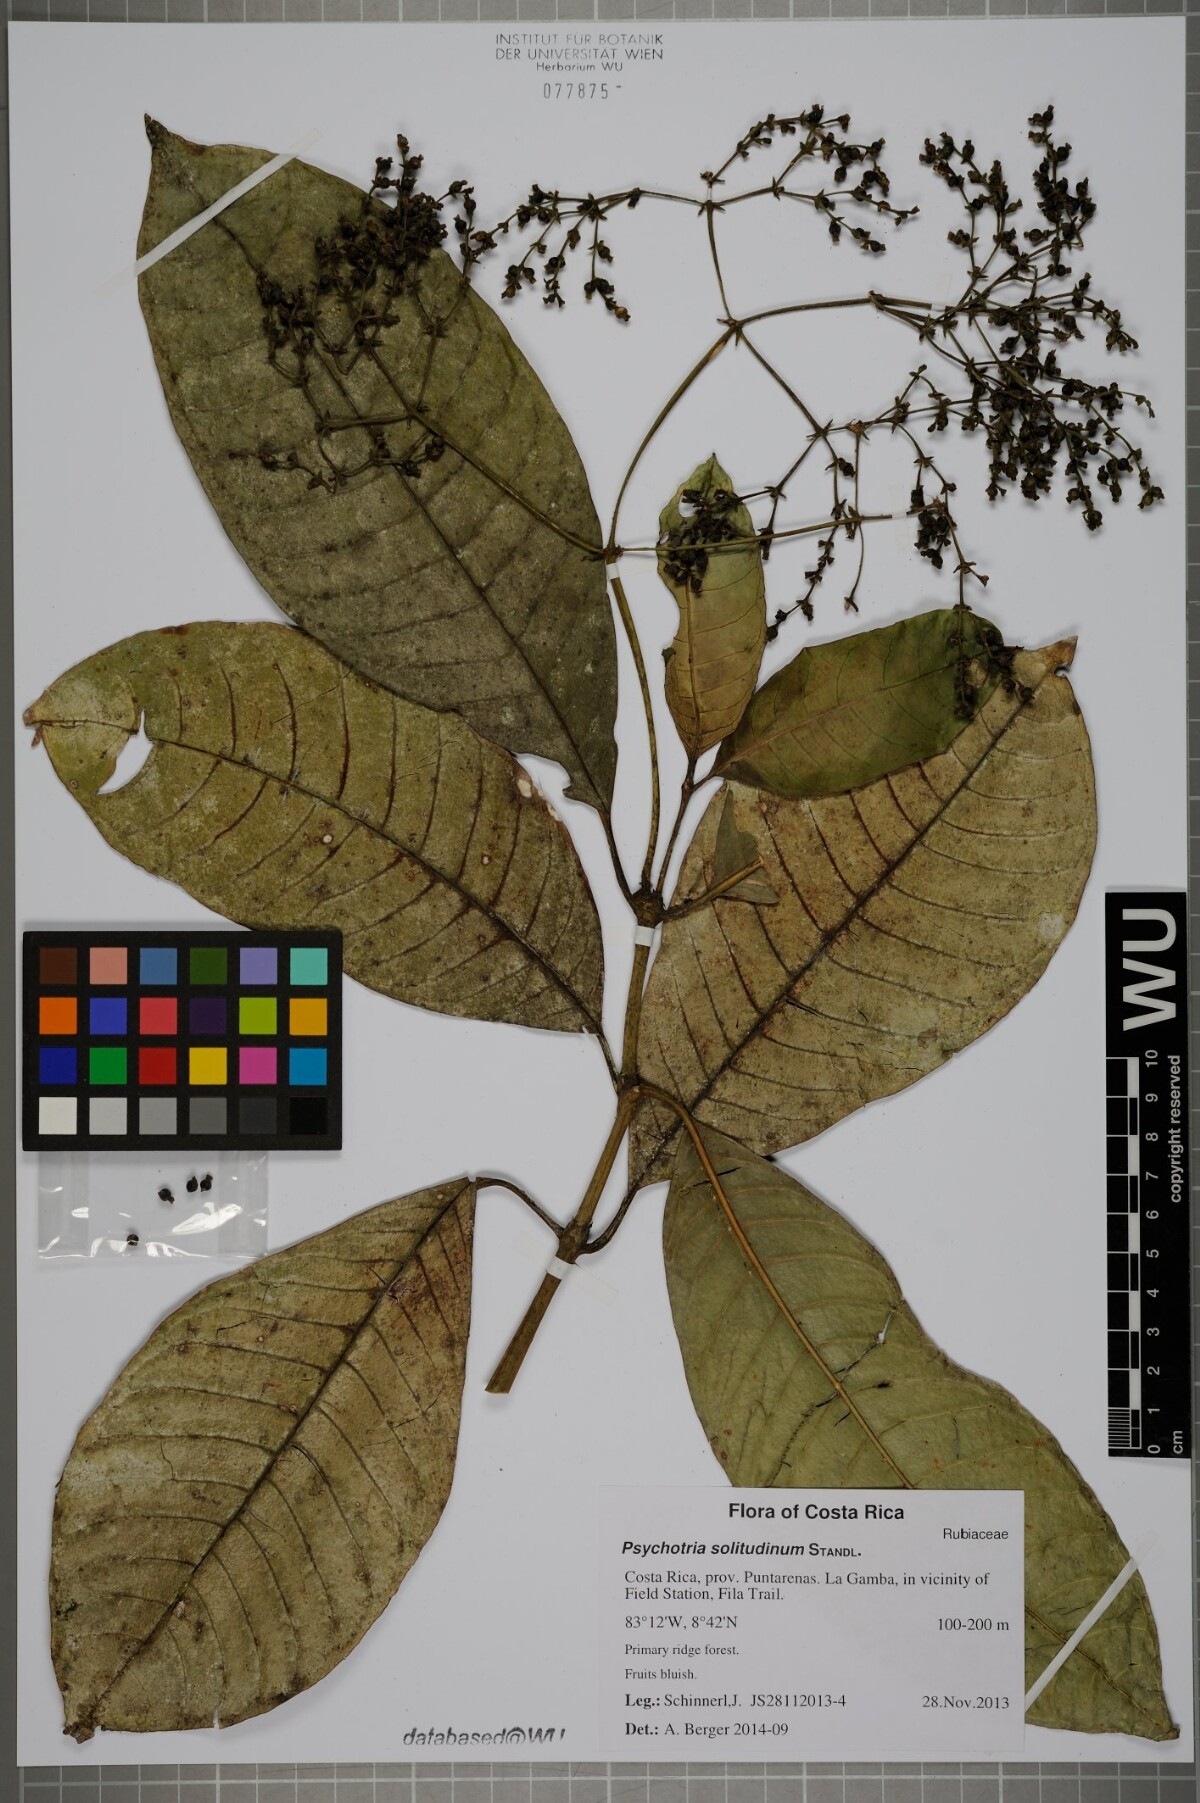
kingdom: Plantae
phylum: Tracheophyta
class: Magnoliopsida
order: Gentianales
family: Rubiaceae
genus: Palicourea
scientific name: Palicourea solitudinum
